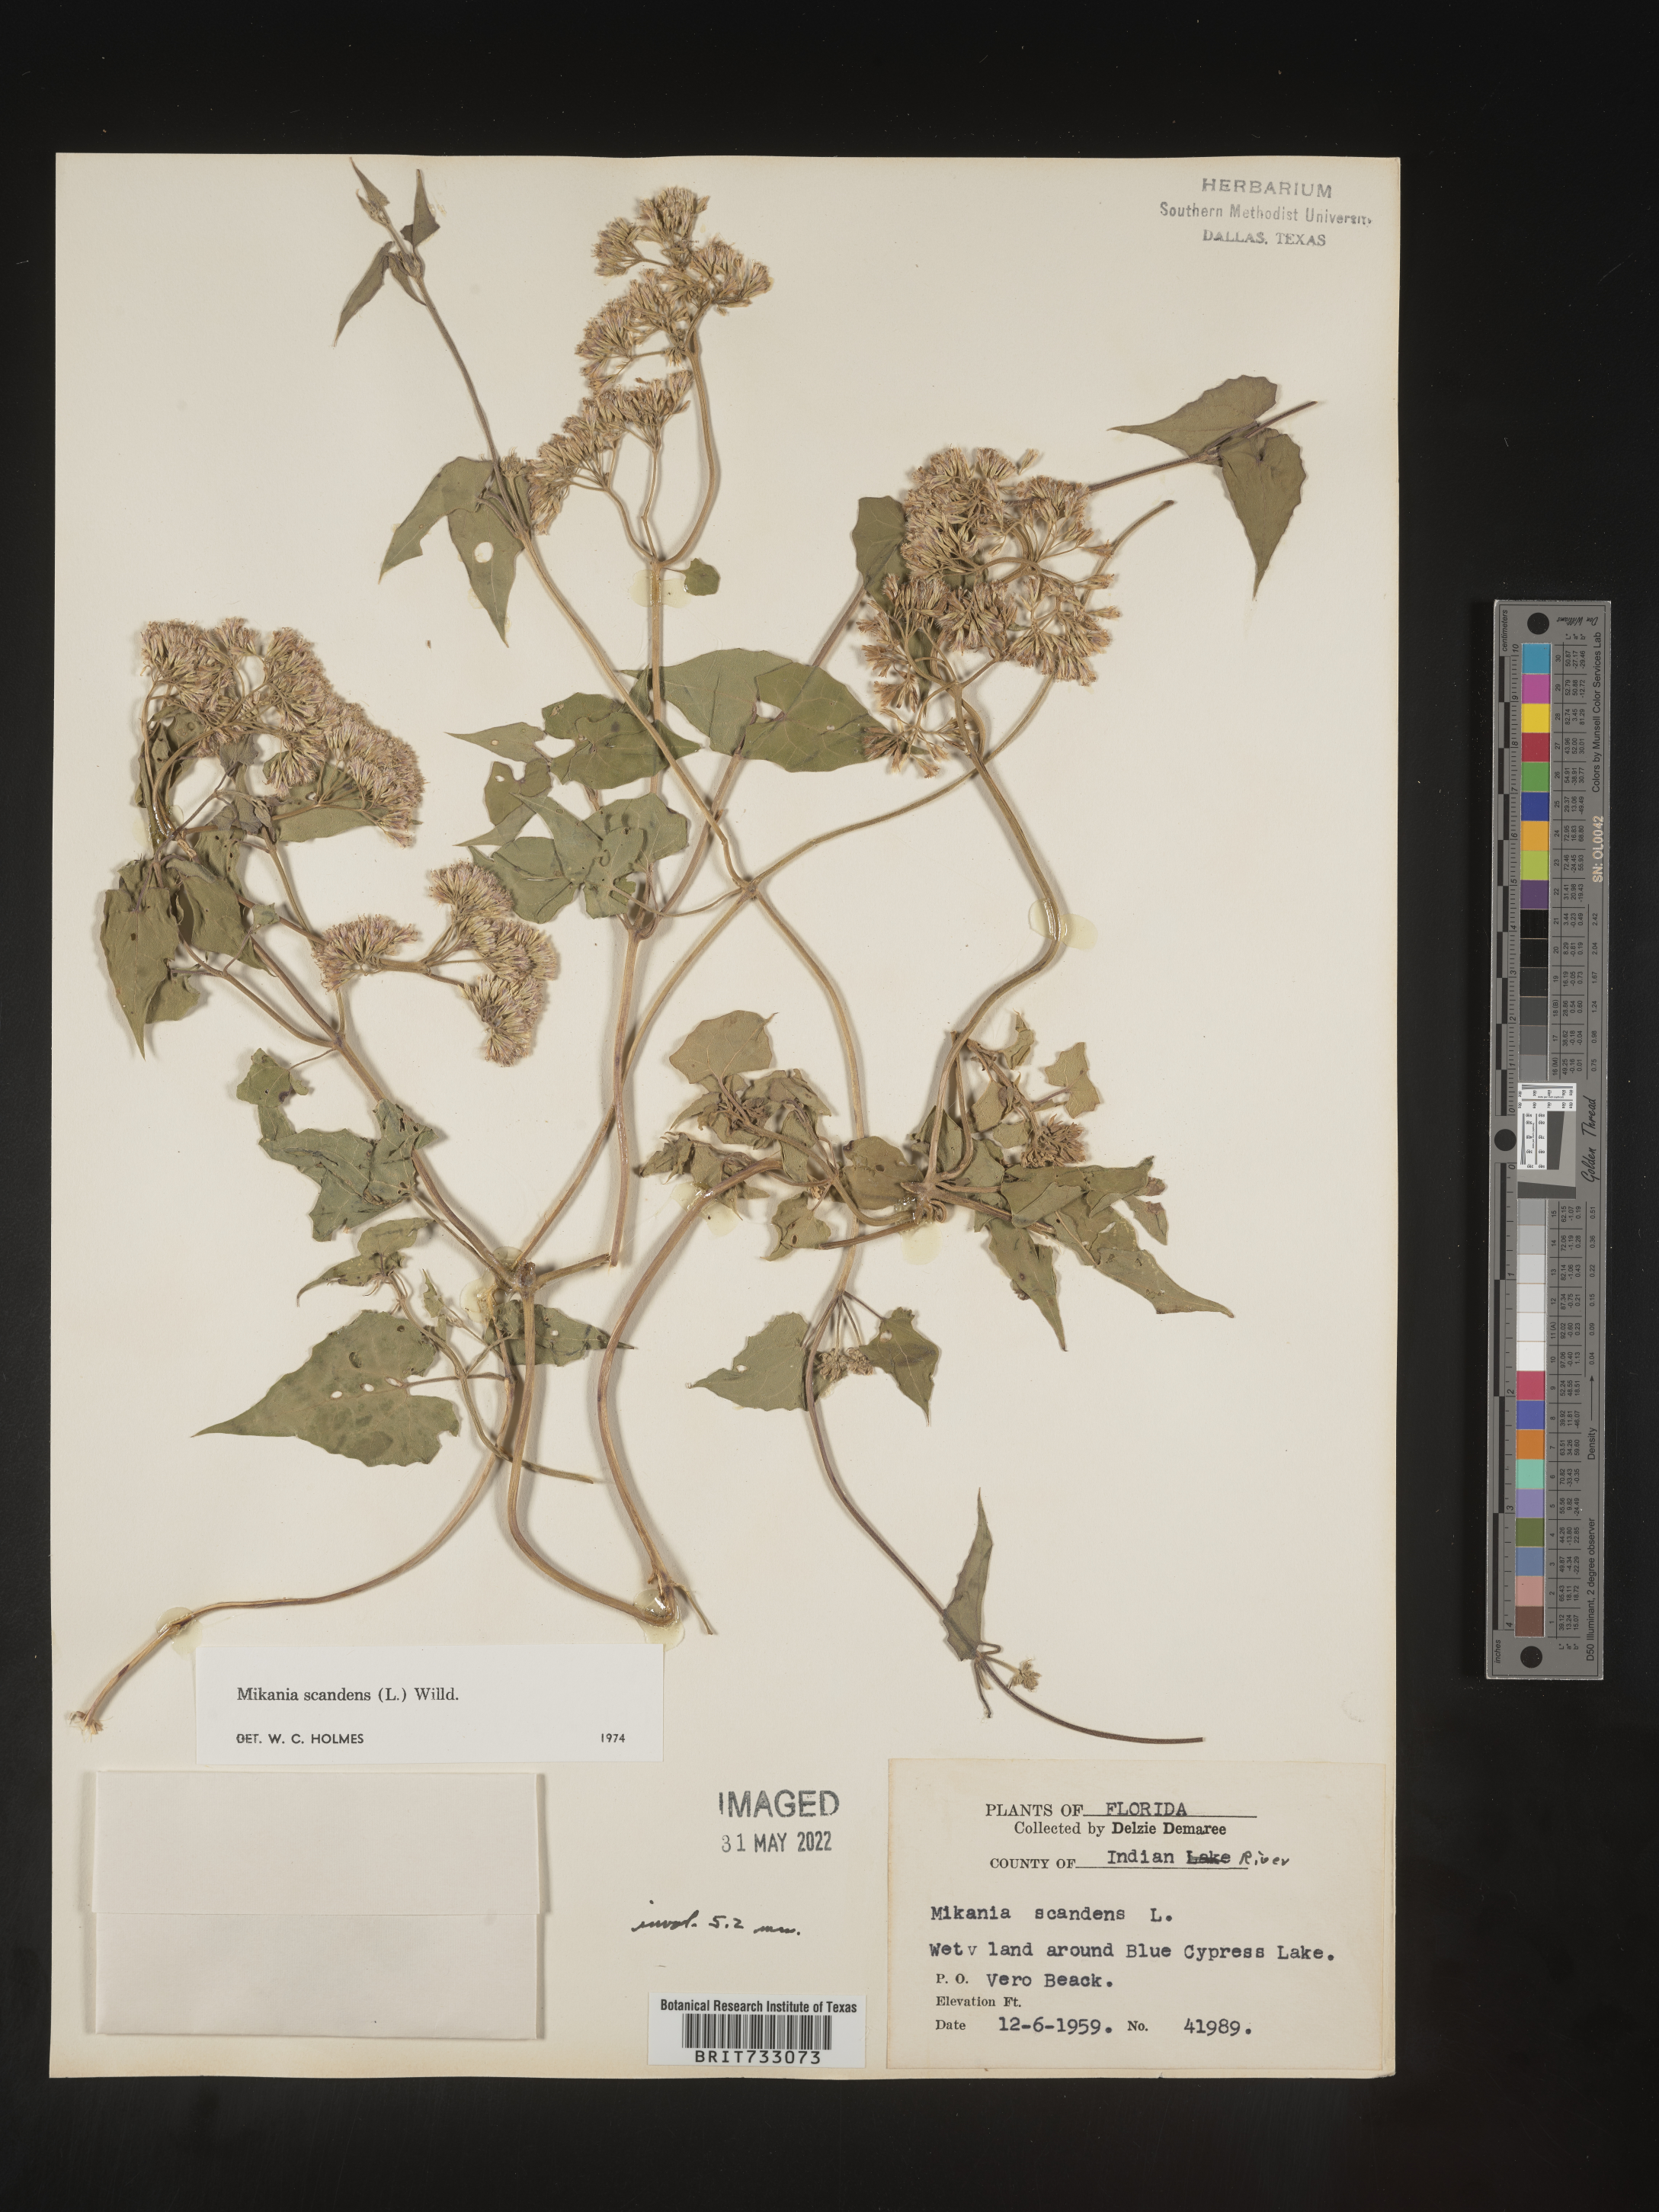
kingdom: Plantae
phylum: Tracheophyta
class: Magnoliopsida
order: Asterales
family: Asteraceae
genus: Mikania
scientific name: Mikania scandens
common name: Climbing hempvine
